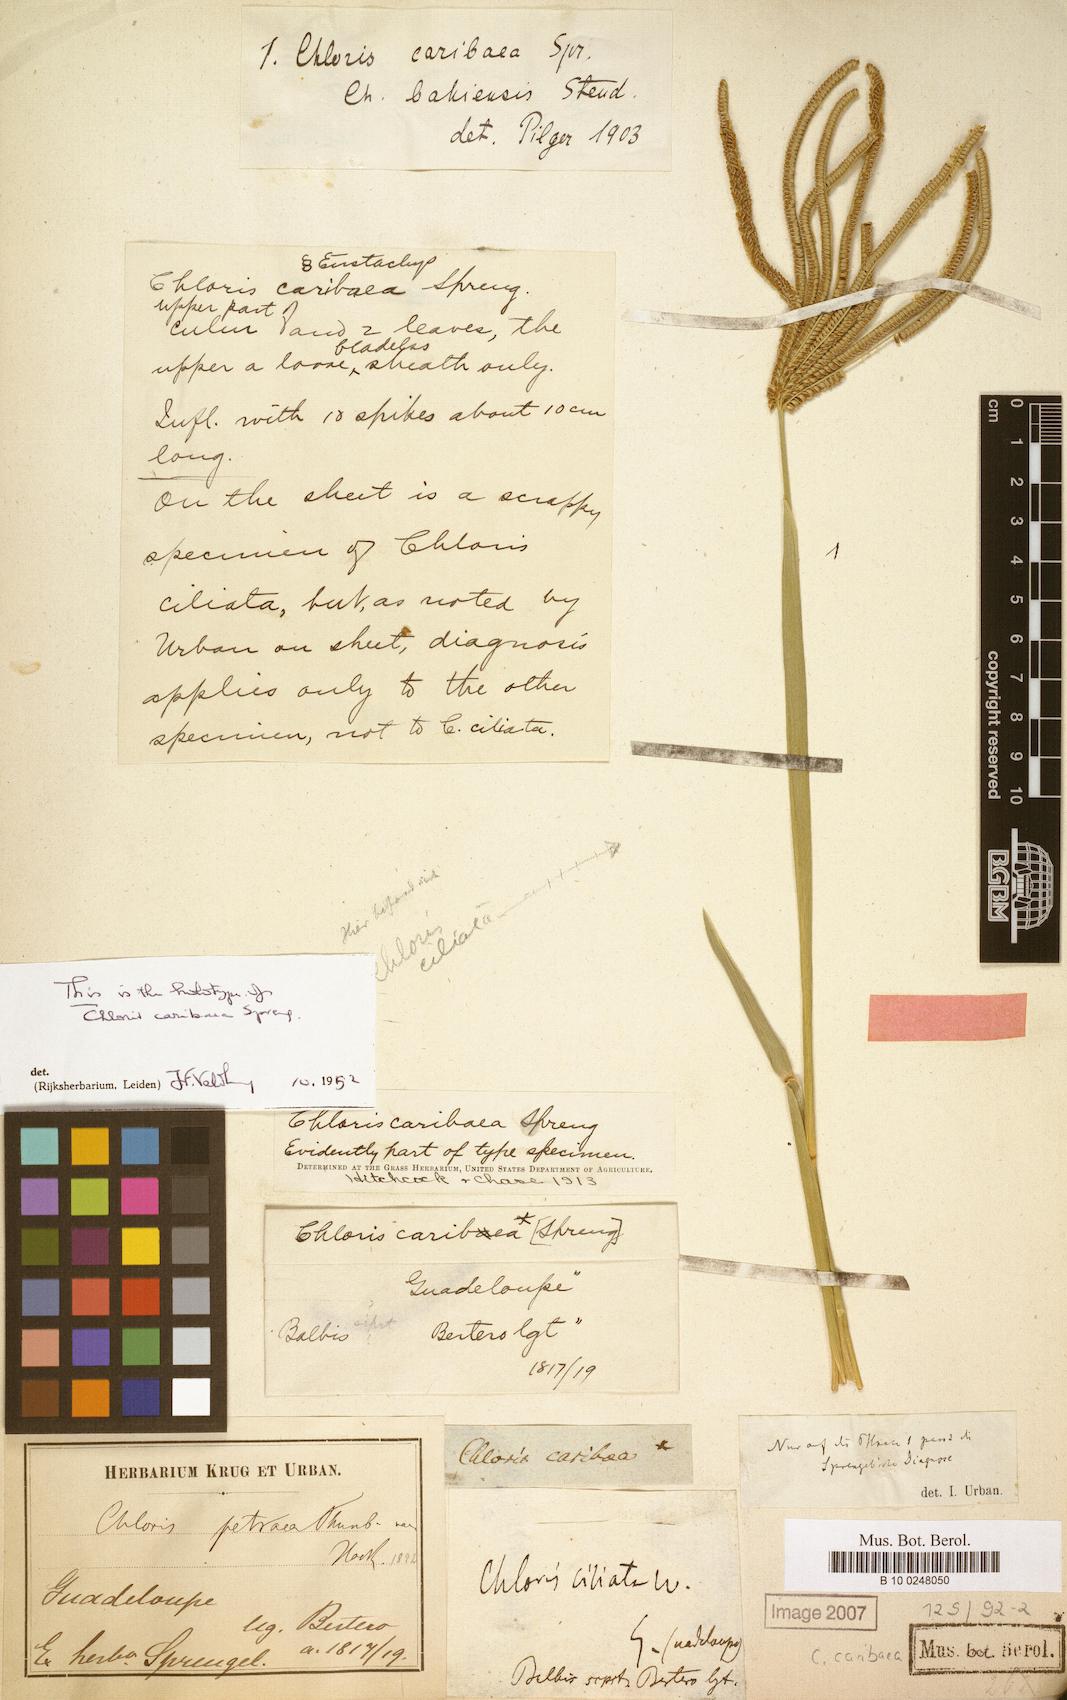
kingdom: Plantae
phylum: Tracheophyta
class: Liliopsida
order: Poales
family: Poaceae
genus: Eustachys
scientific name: Eustachys caribaea
